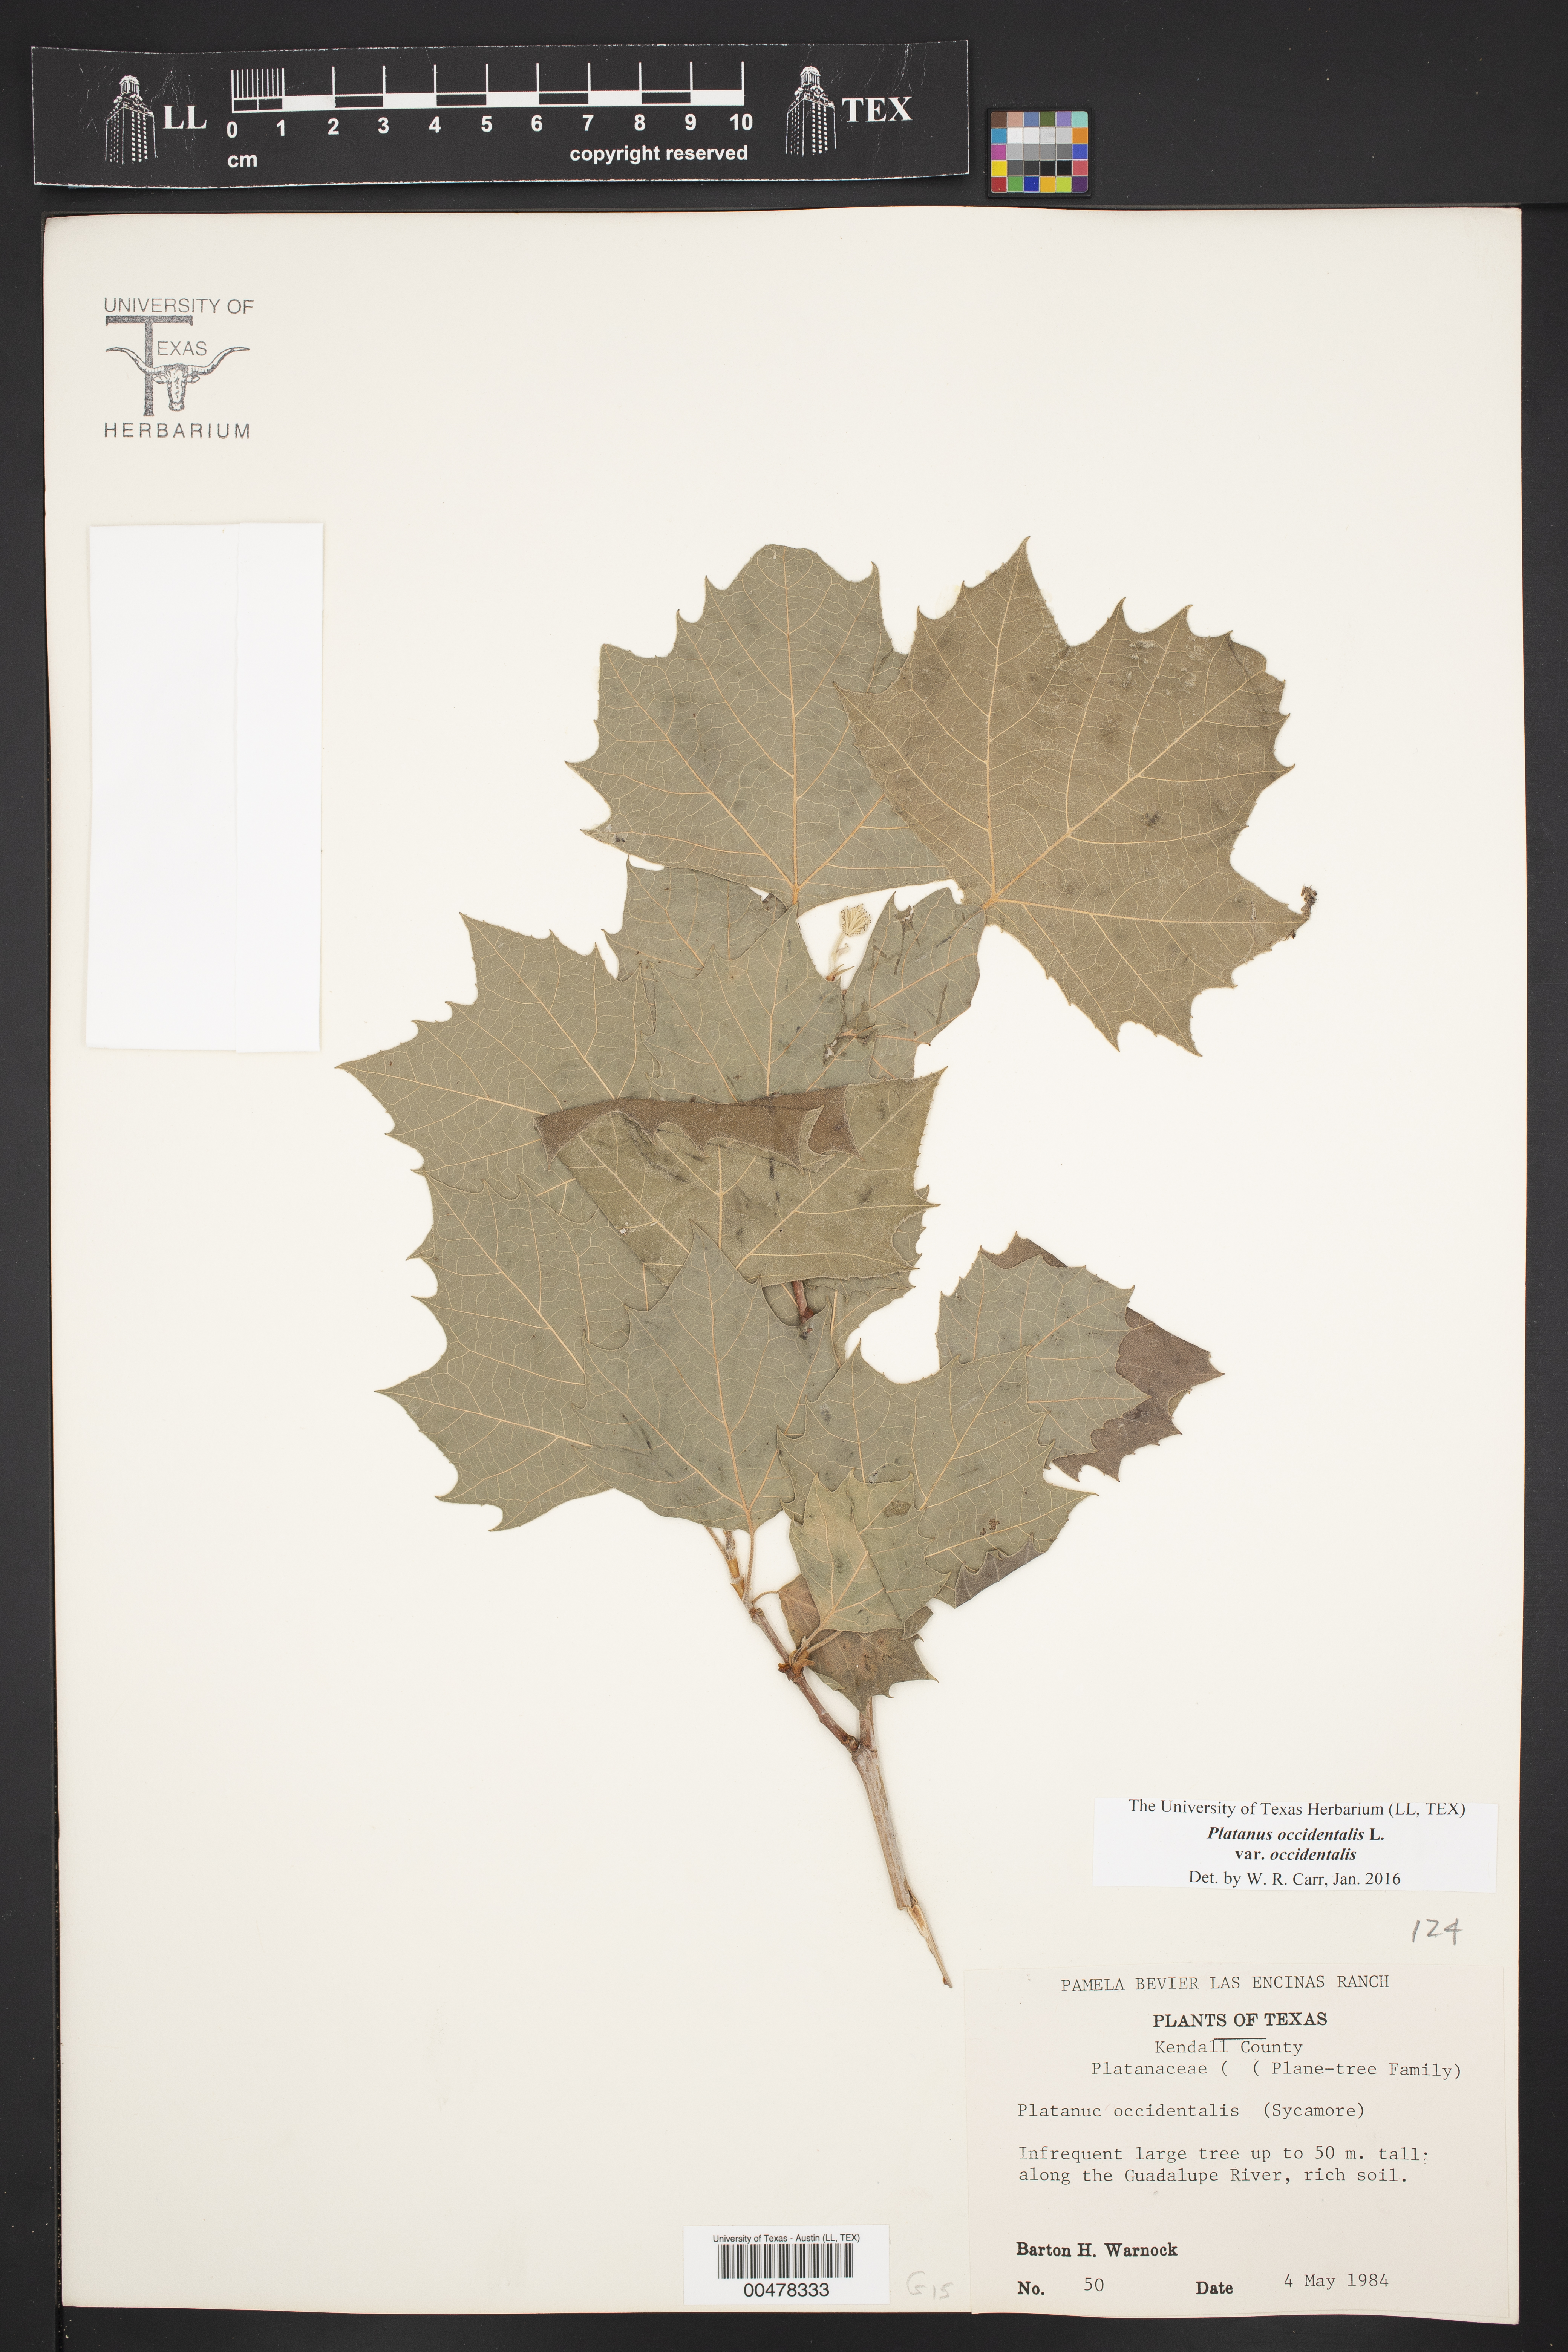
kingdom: Plantae
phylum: Tracheophyta
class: Magnoliopsida
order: Proteales
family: Platanaceae
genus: Platanus
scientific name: Platanus occidentalis
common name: American sycamore
